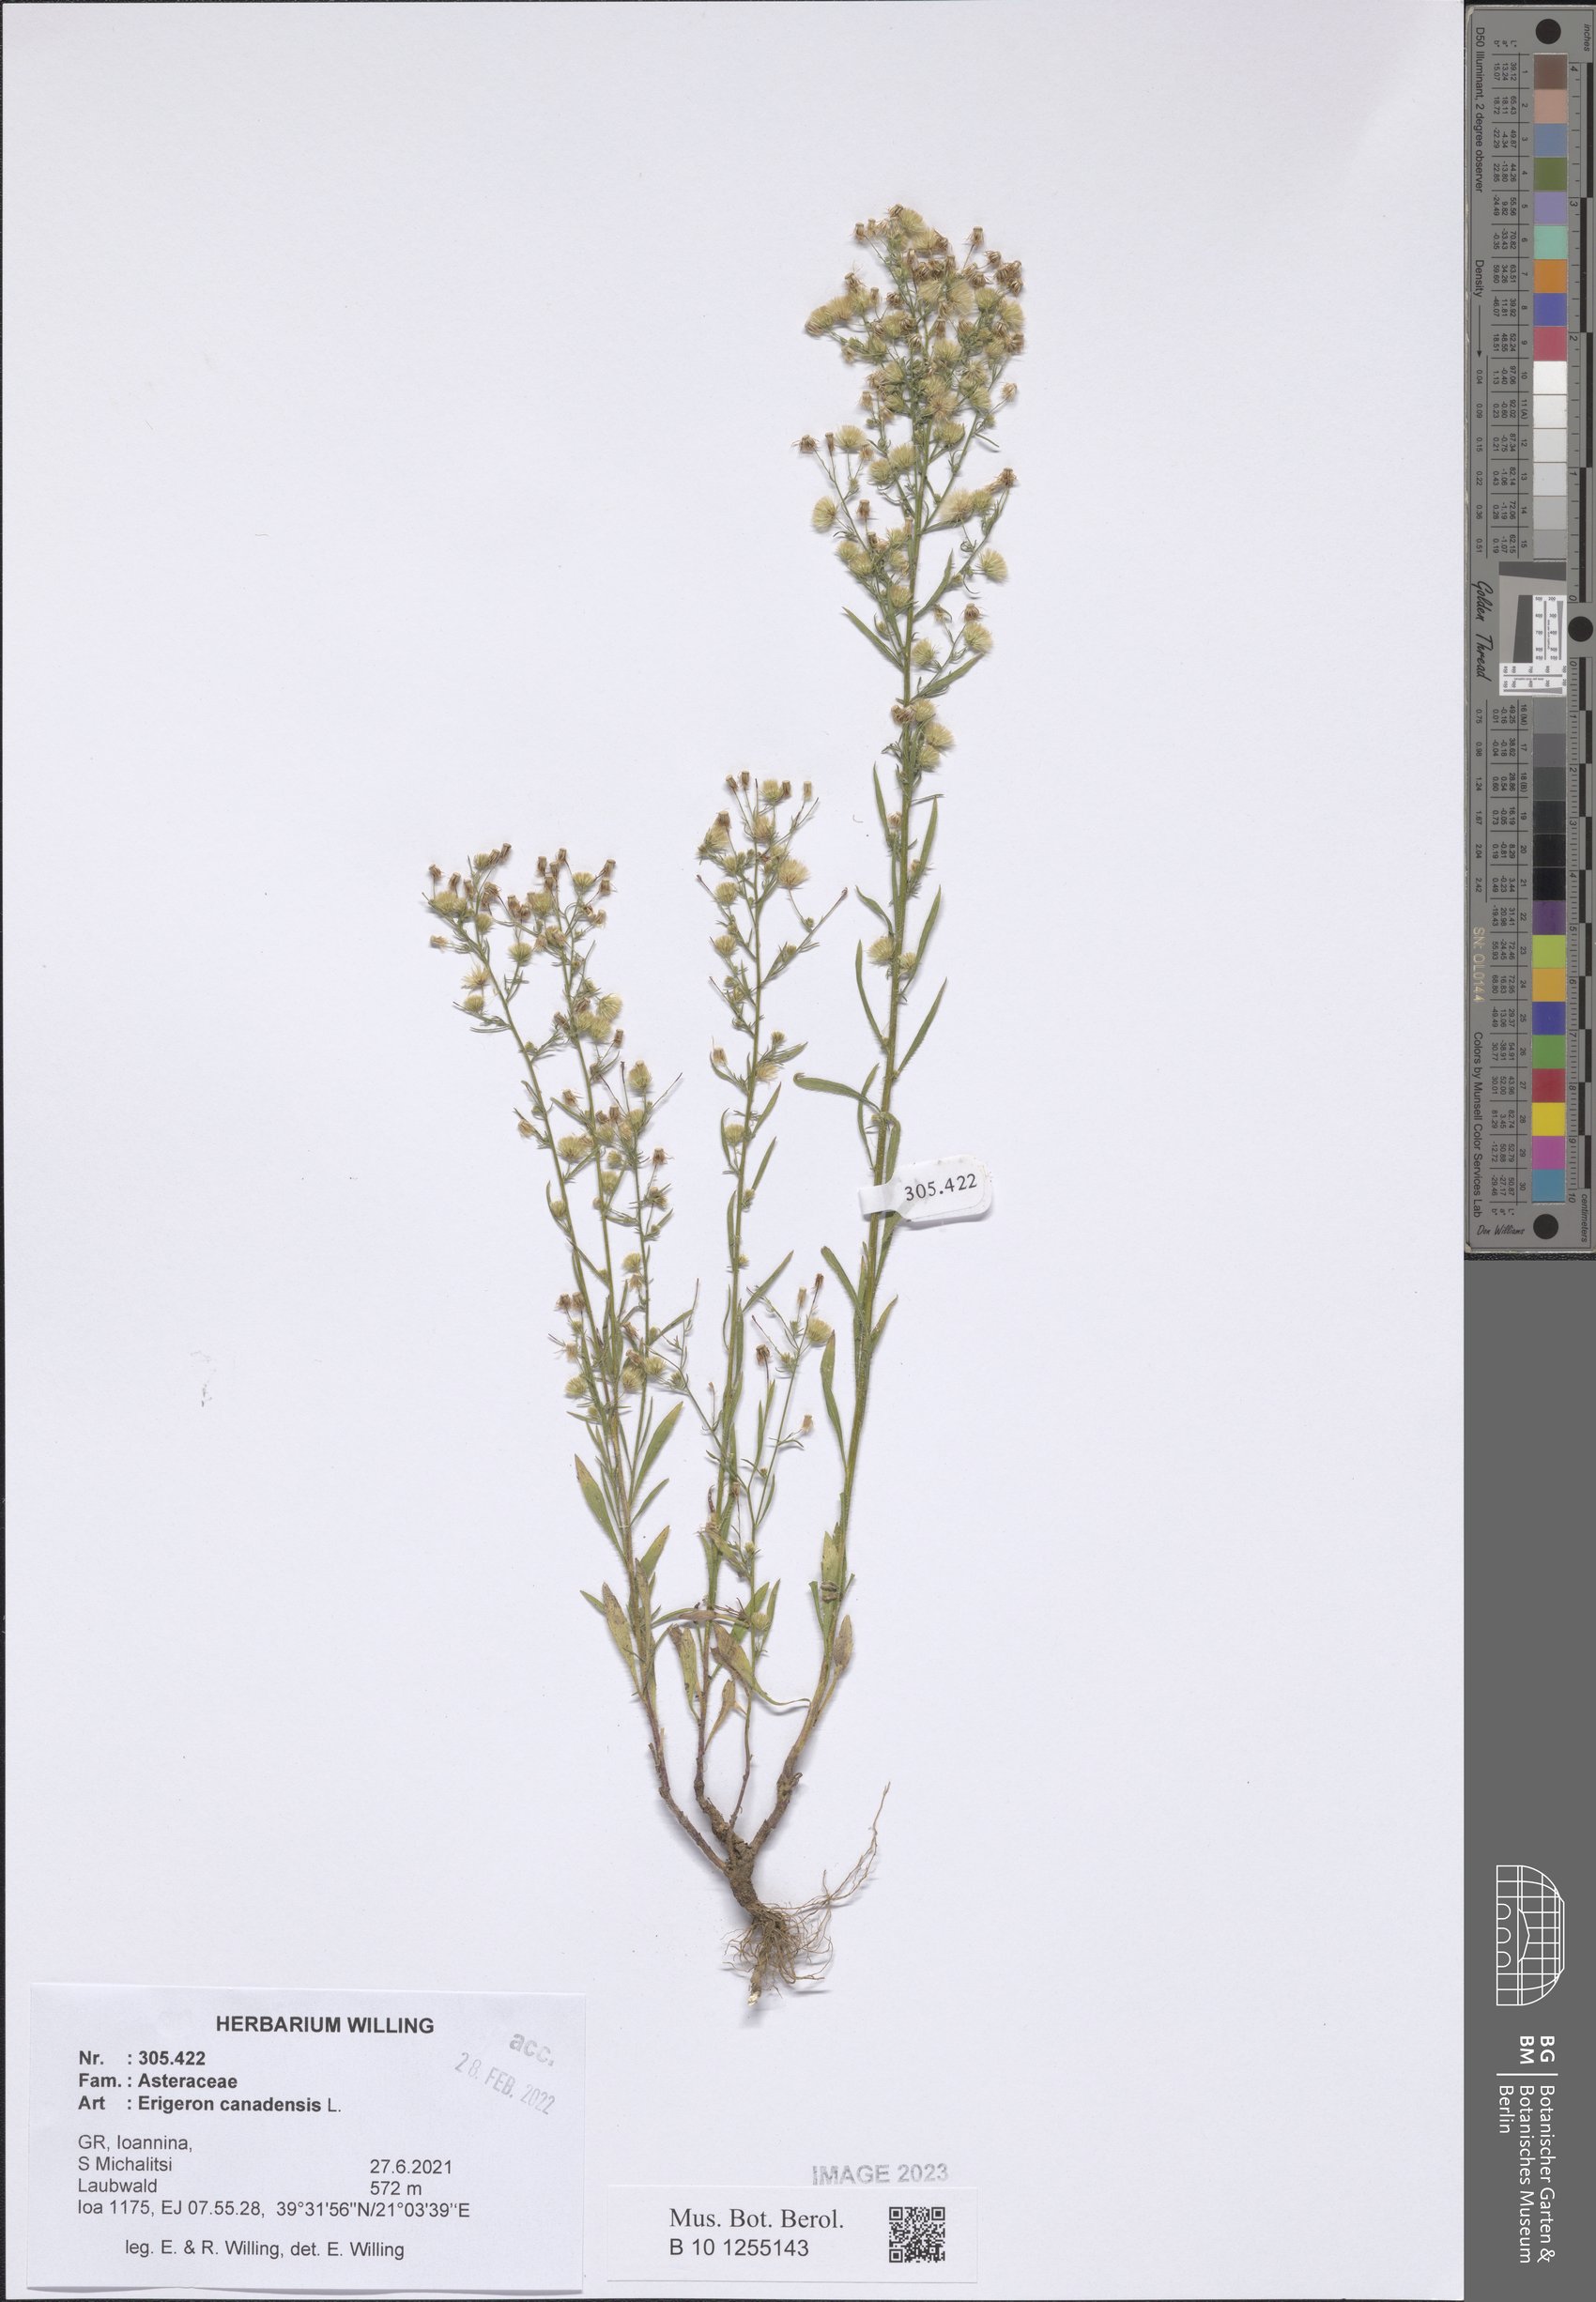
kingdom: Plantae
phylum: Tracheophyta
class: Magnoliopsida
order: Asterales
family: Asteraceae
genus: Erigeron
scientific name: Erigeron canadensis
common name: Canadian fleabane
